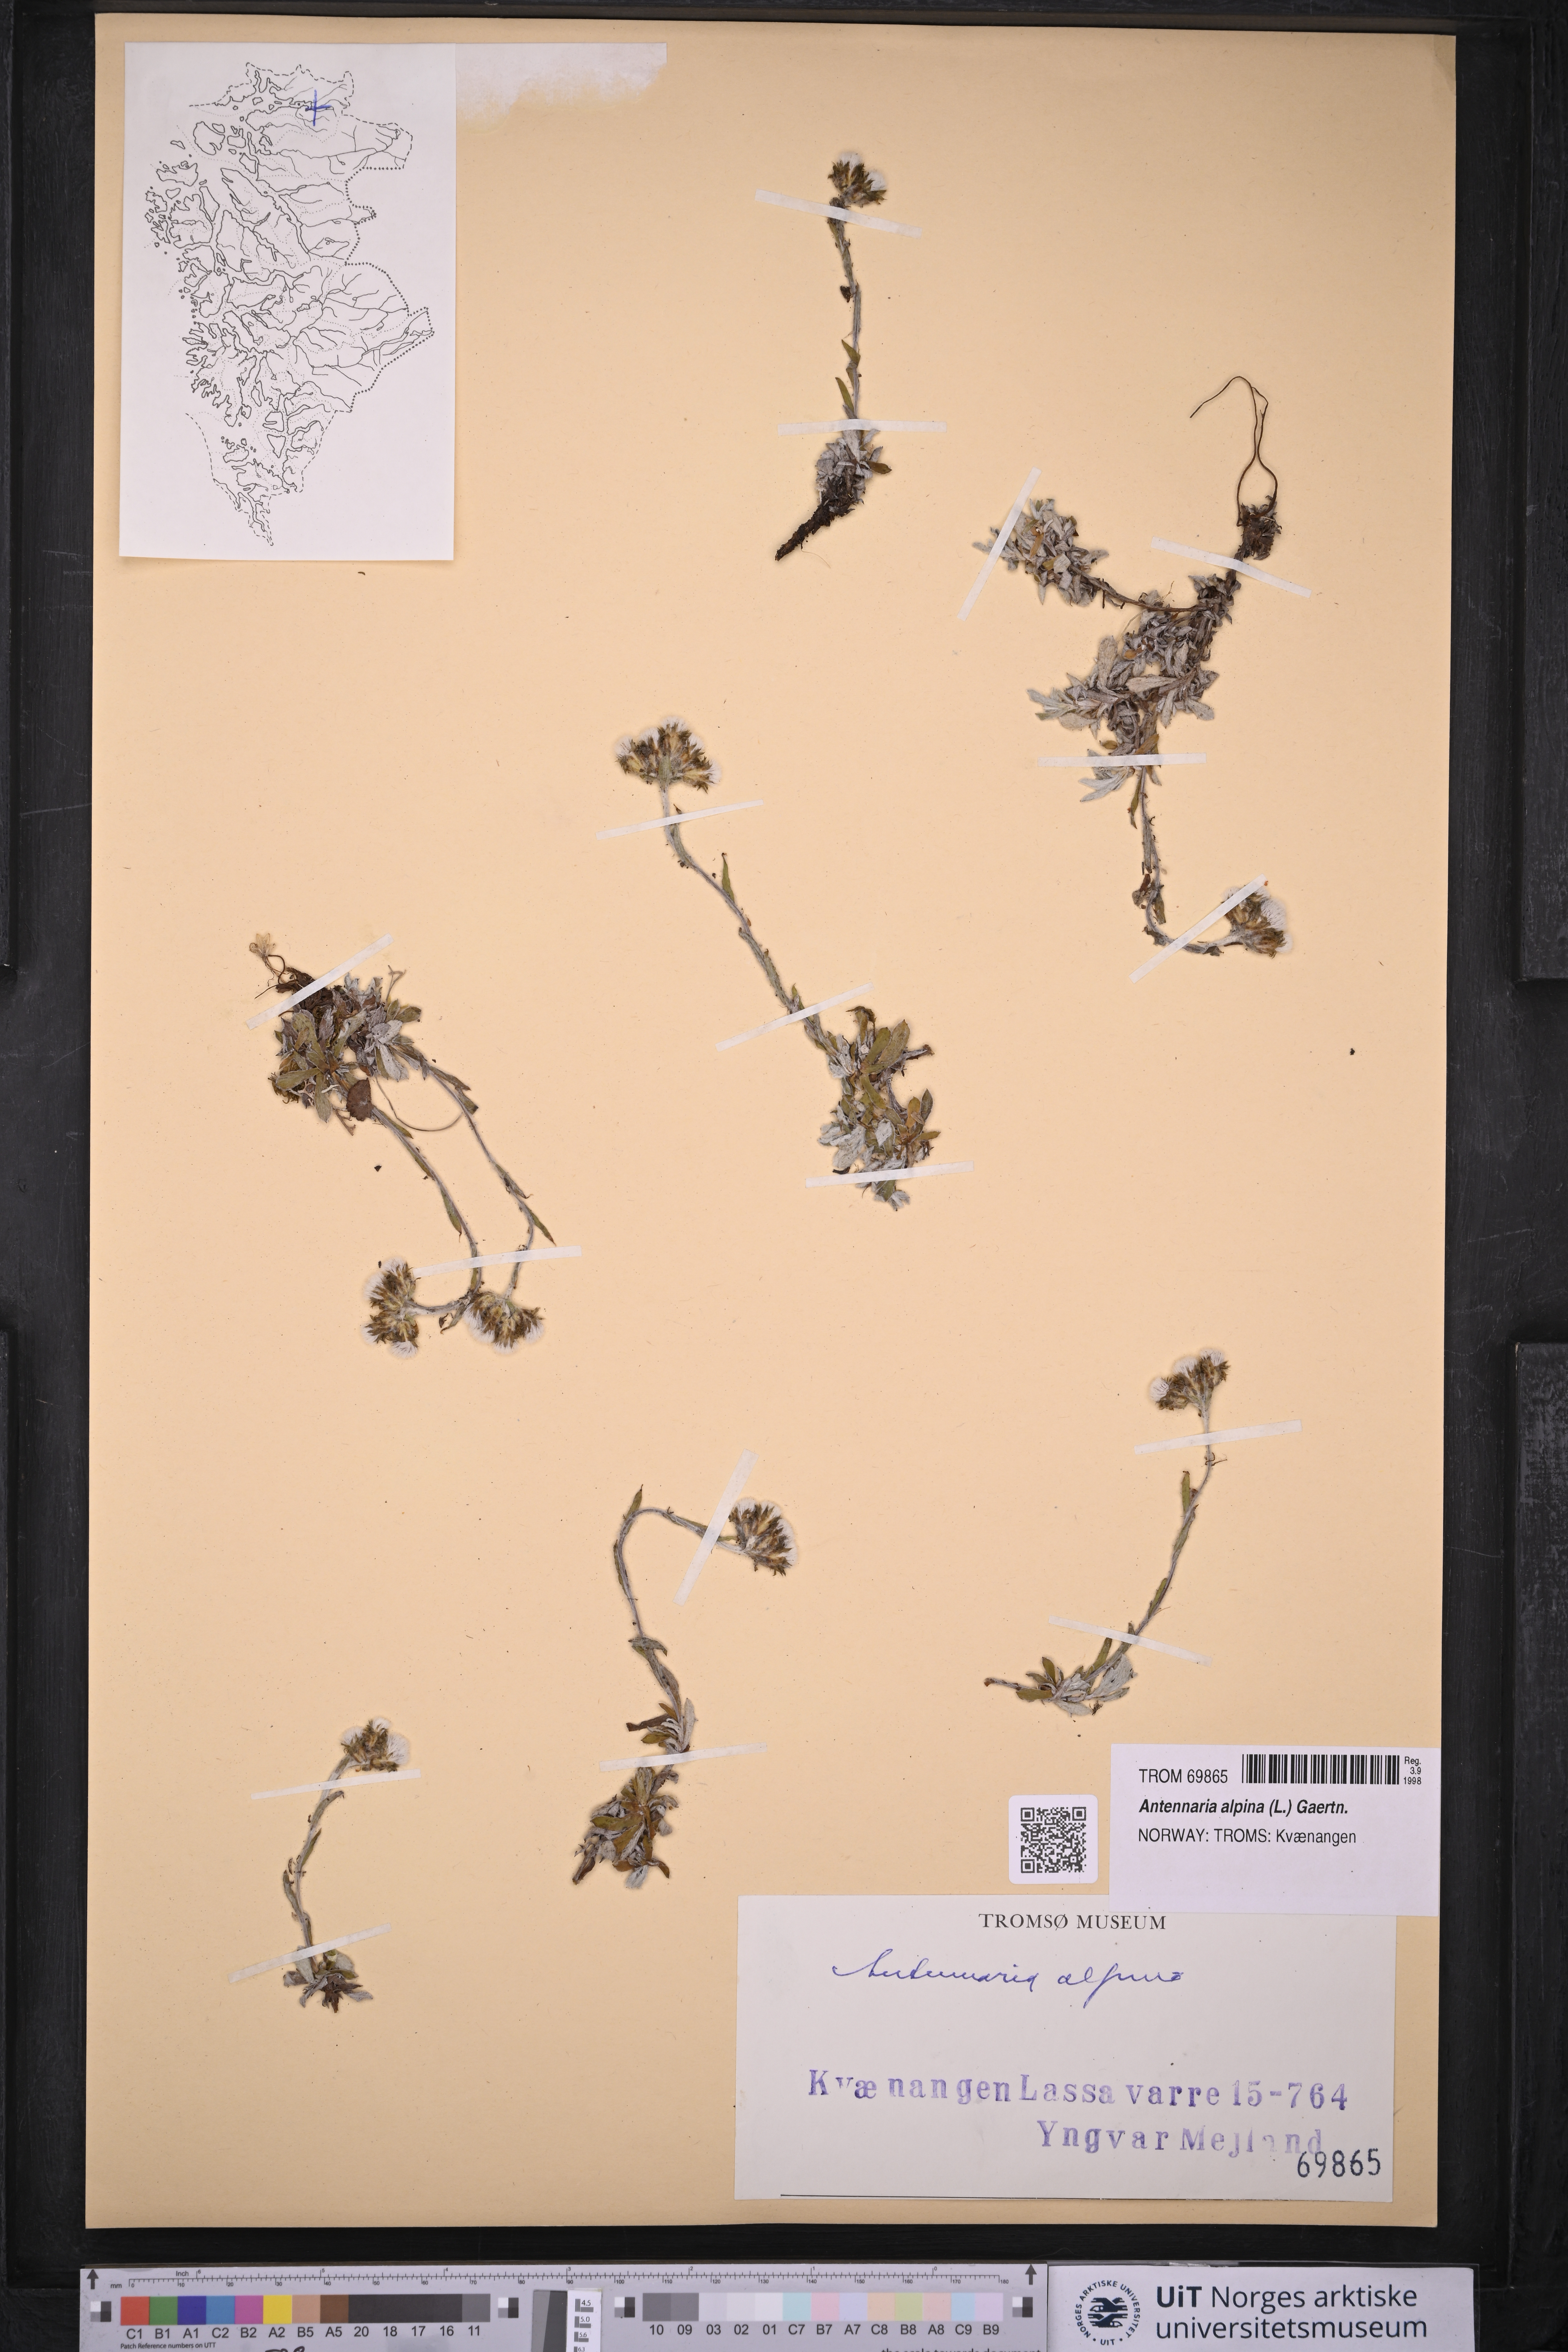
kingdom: Plantae
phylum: Tracheophyta
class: Magnoliopsida
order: Asterales
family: Asteraceae
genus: Antennaria
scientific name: Antennaria alpina
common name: Alpine pussytoes
